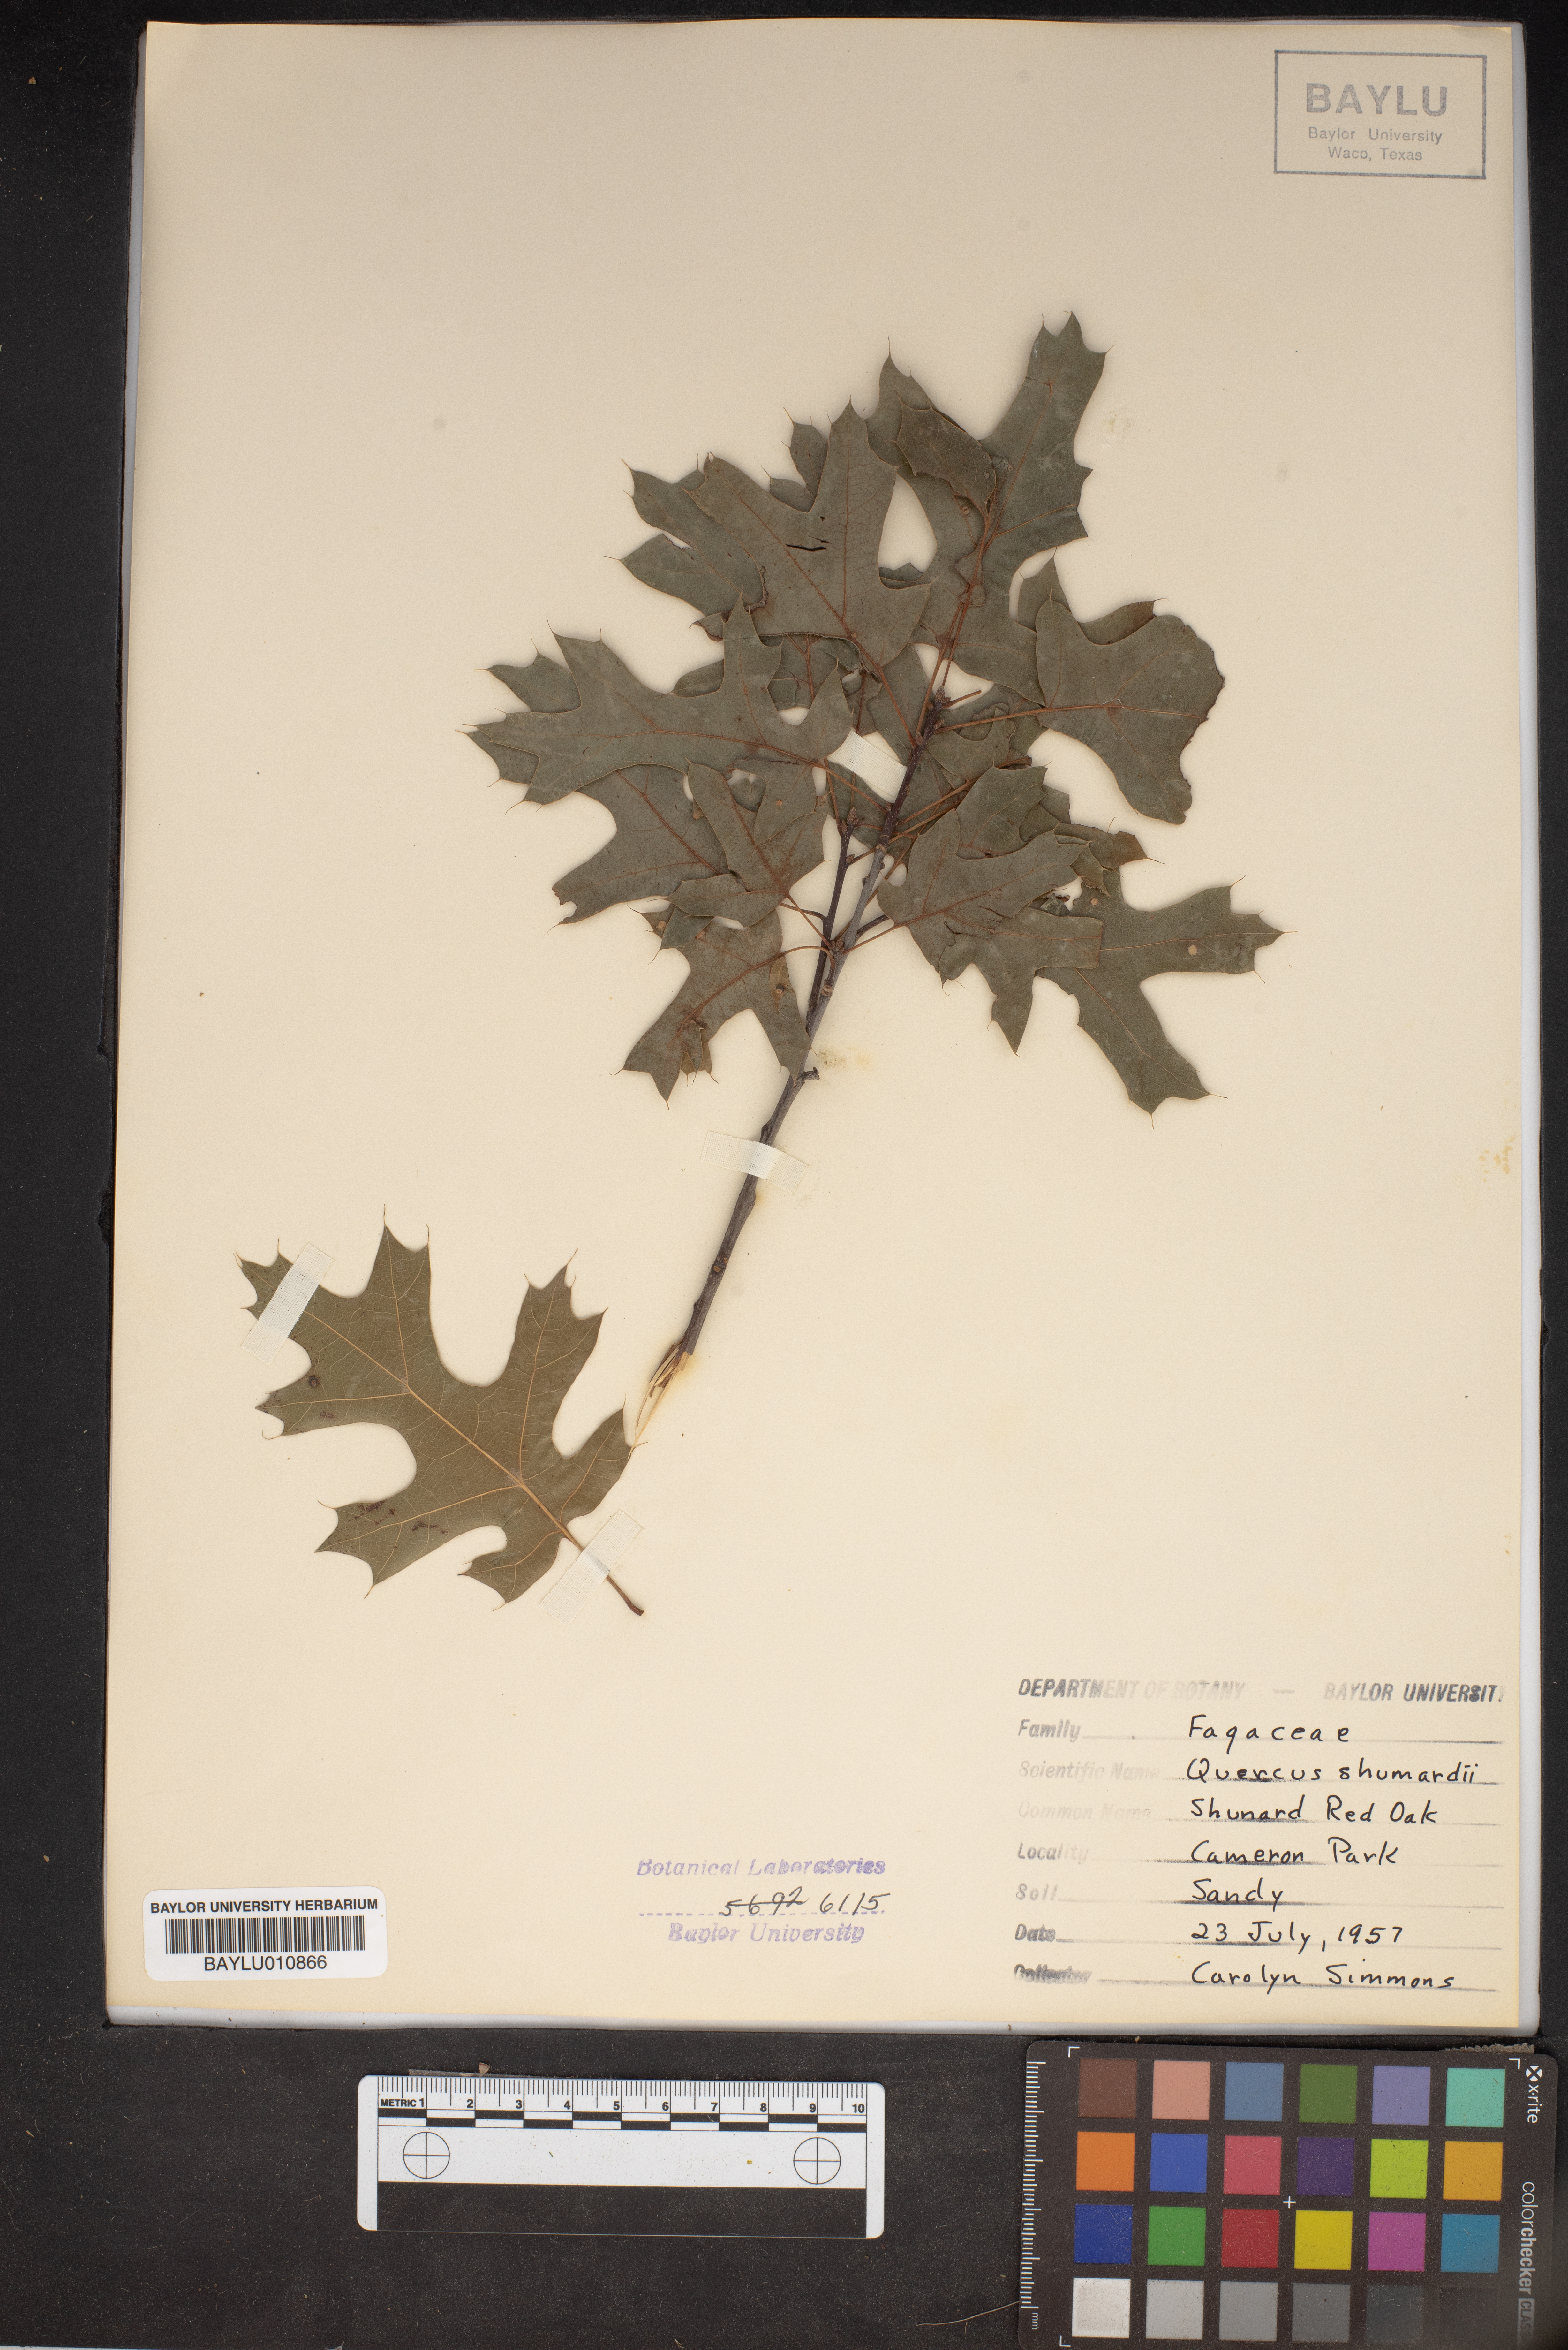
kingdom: Plantae
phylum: Tracheophyta
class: Magnoliopsida
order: Fagales
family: Fagaceae
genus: Quercus
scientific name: Quercus shumardii
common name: Shumard oak
